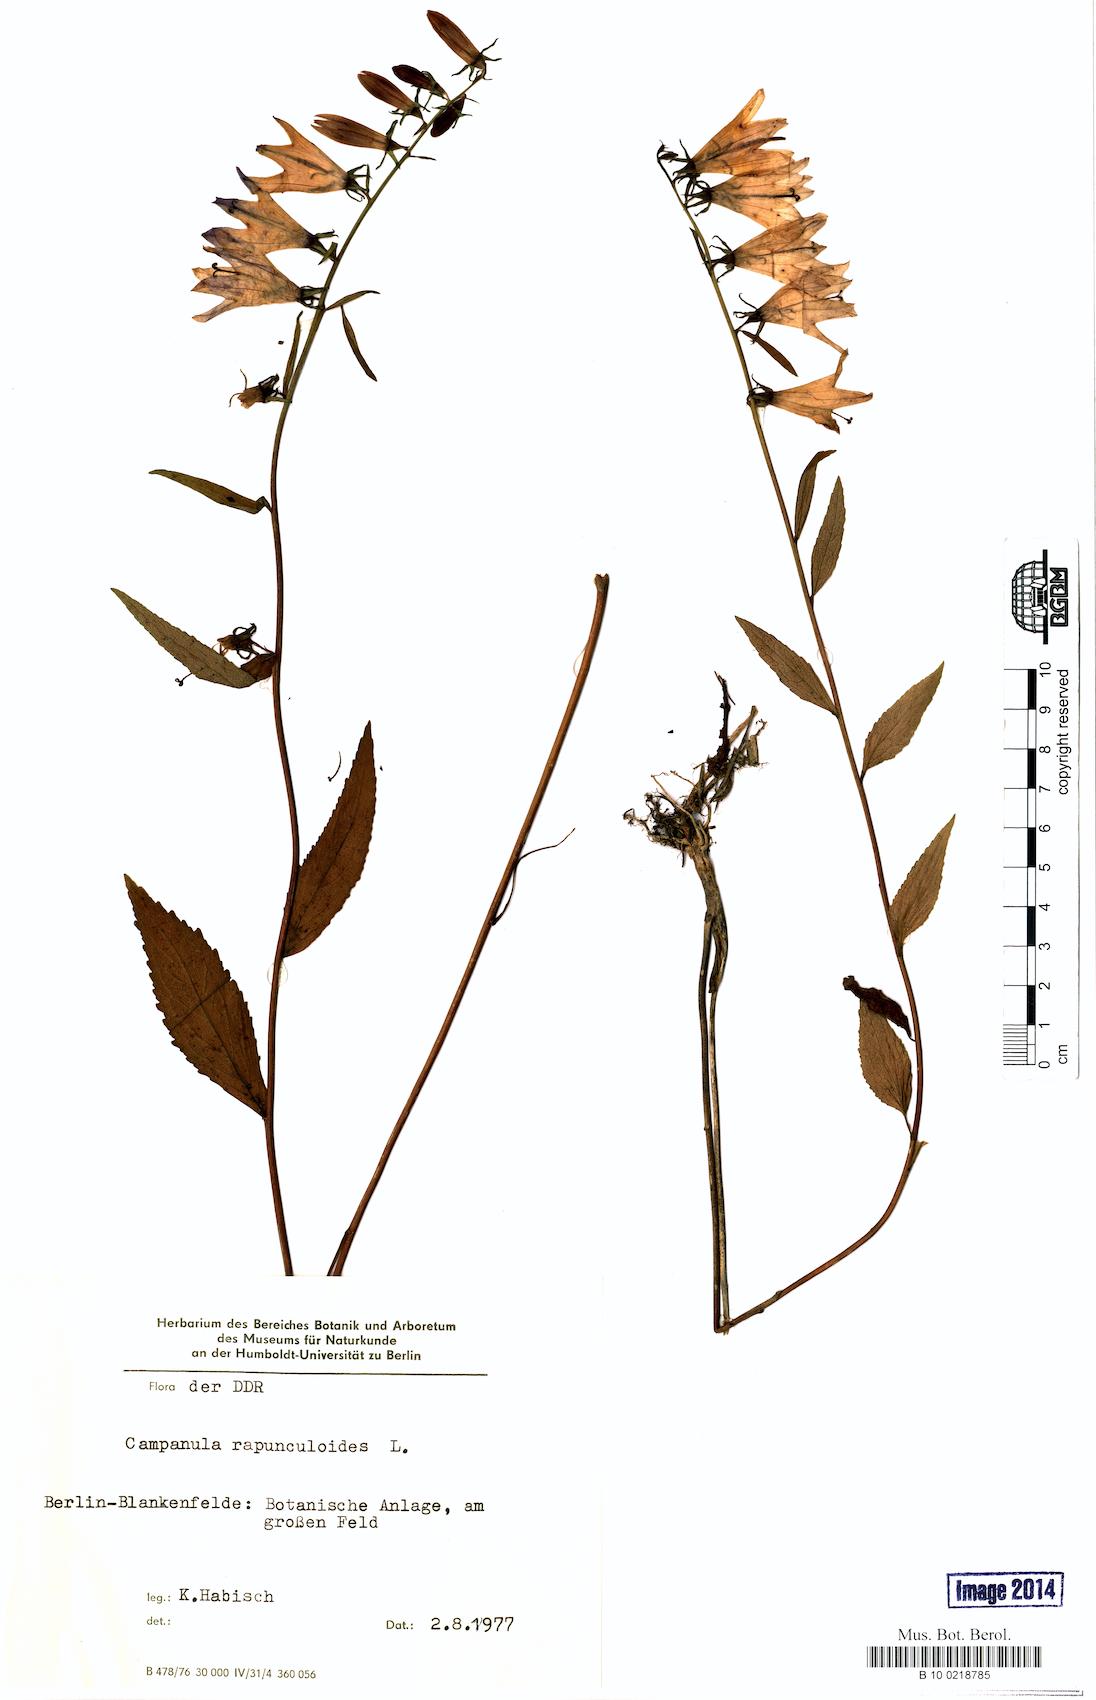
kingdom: Plantae
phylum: Tracheophyta
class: Magnoliopsida
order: Asterales
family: Campanulaceae
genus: Campanula
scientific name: Campanula rapunculoides
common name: Creeping bellflower
